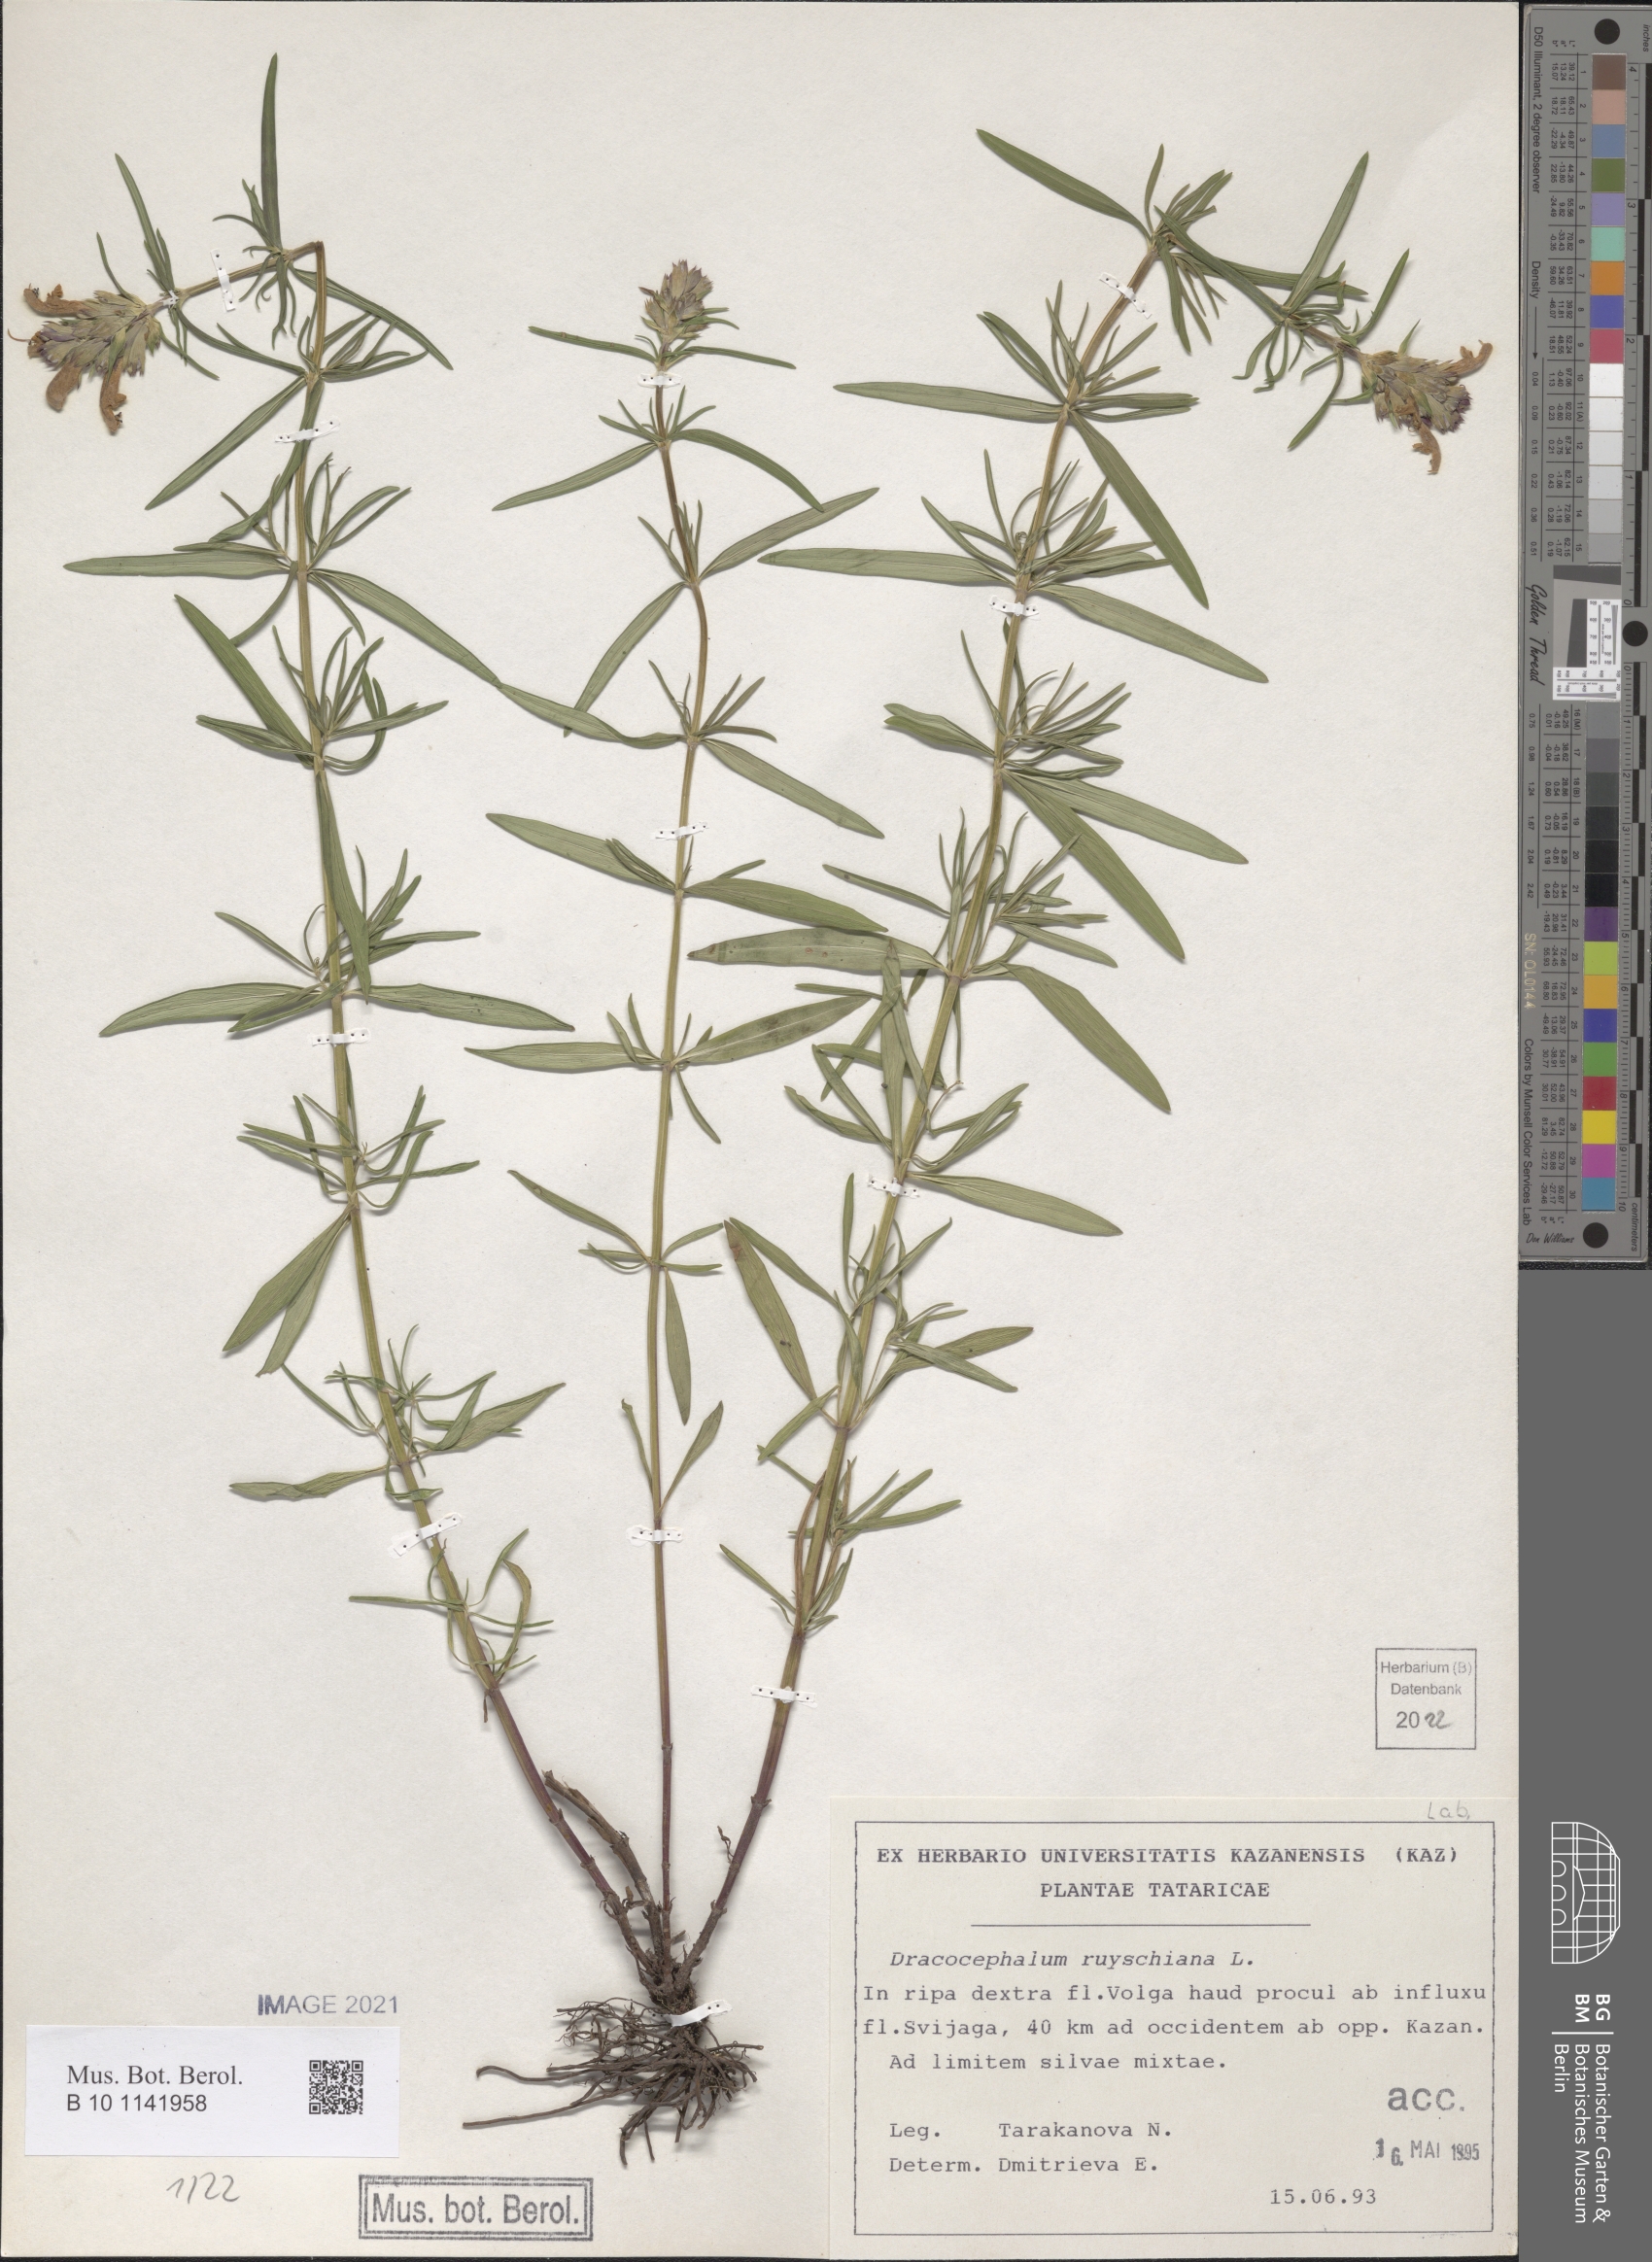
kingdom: Plantae
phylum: Tracheophyta
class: Magnoliopsida
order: Lamiales
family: Lamiaceae
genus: Dracocephalum
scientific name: Dracocephalum ruyschiana
